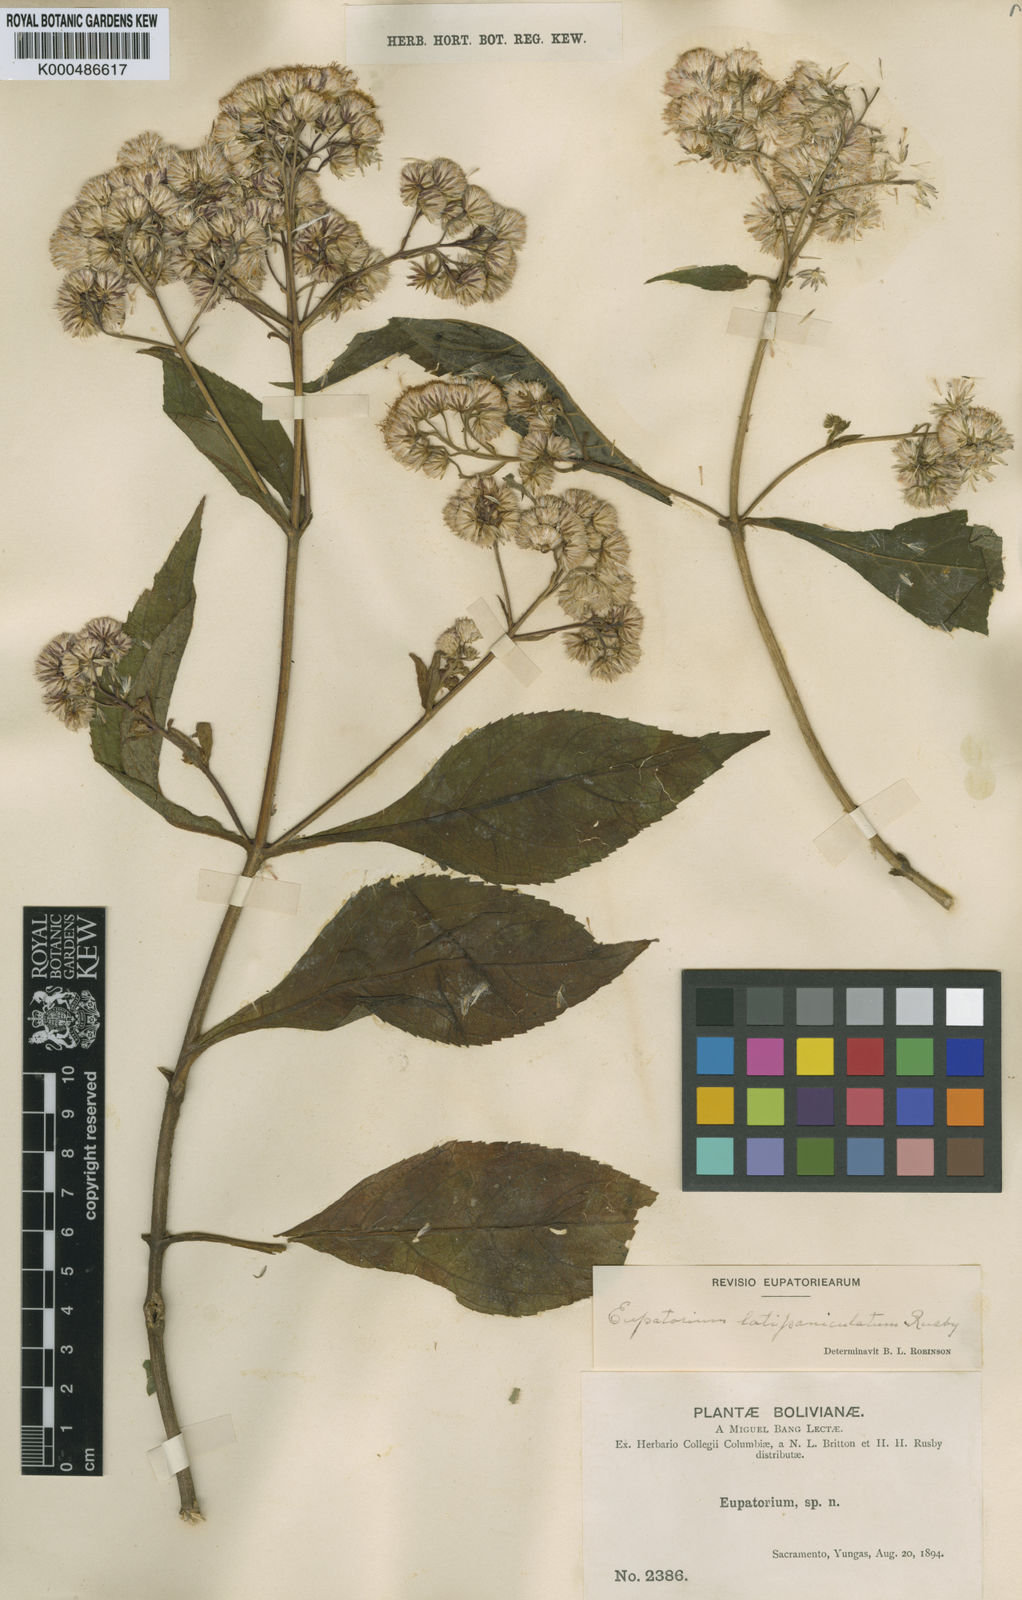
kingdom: Plantae
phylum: Tracheophyta
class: Magnoliopsida
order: Asterales
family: Asteraceae
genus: Ayapanopsis
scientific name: Ayapanopsis latipaniculata
